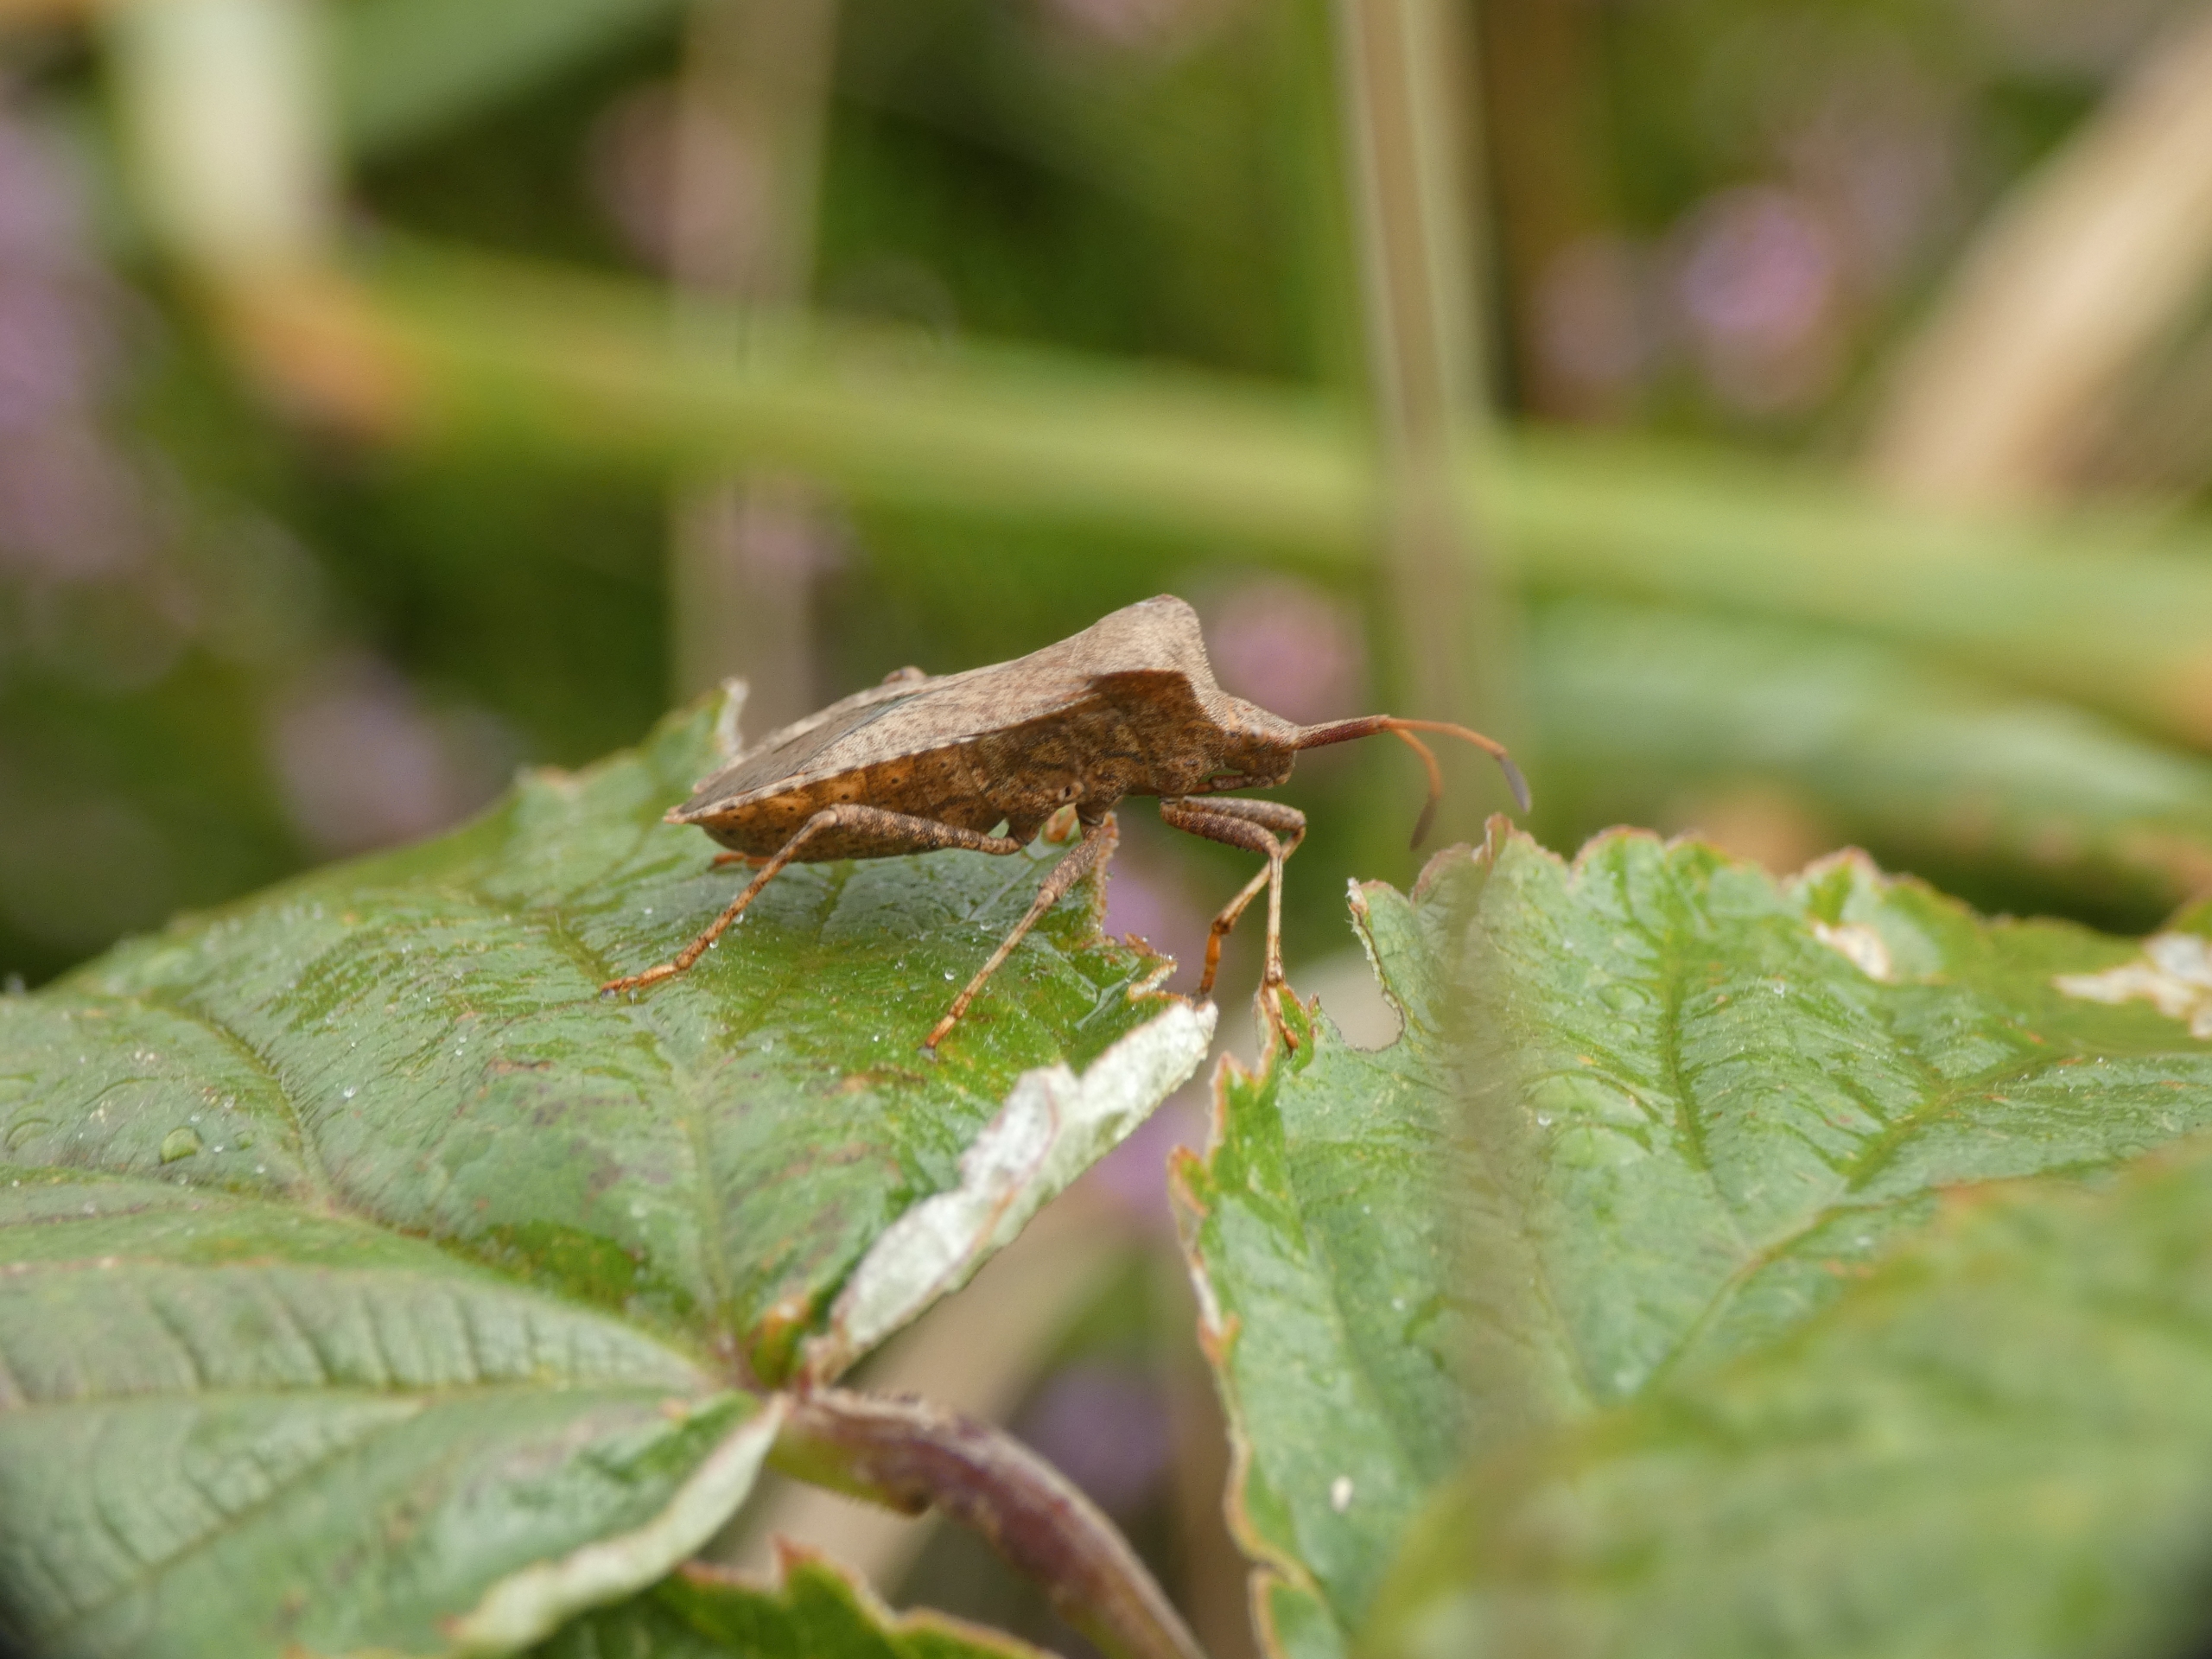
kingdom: Animalia
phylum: Arthropoda
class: Insecta
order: Hemiptera
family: Coreidae
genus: Coreus
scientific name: Coreus marginatus
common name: Skræppetæge
